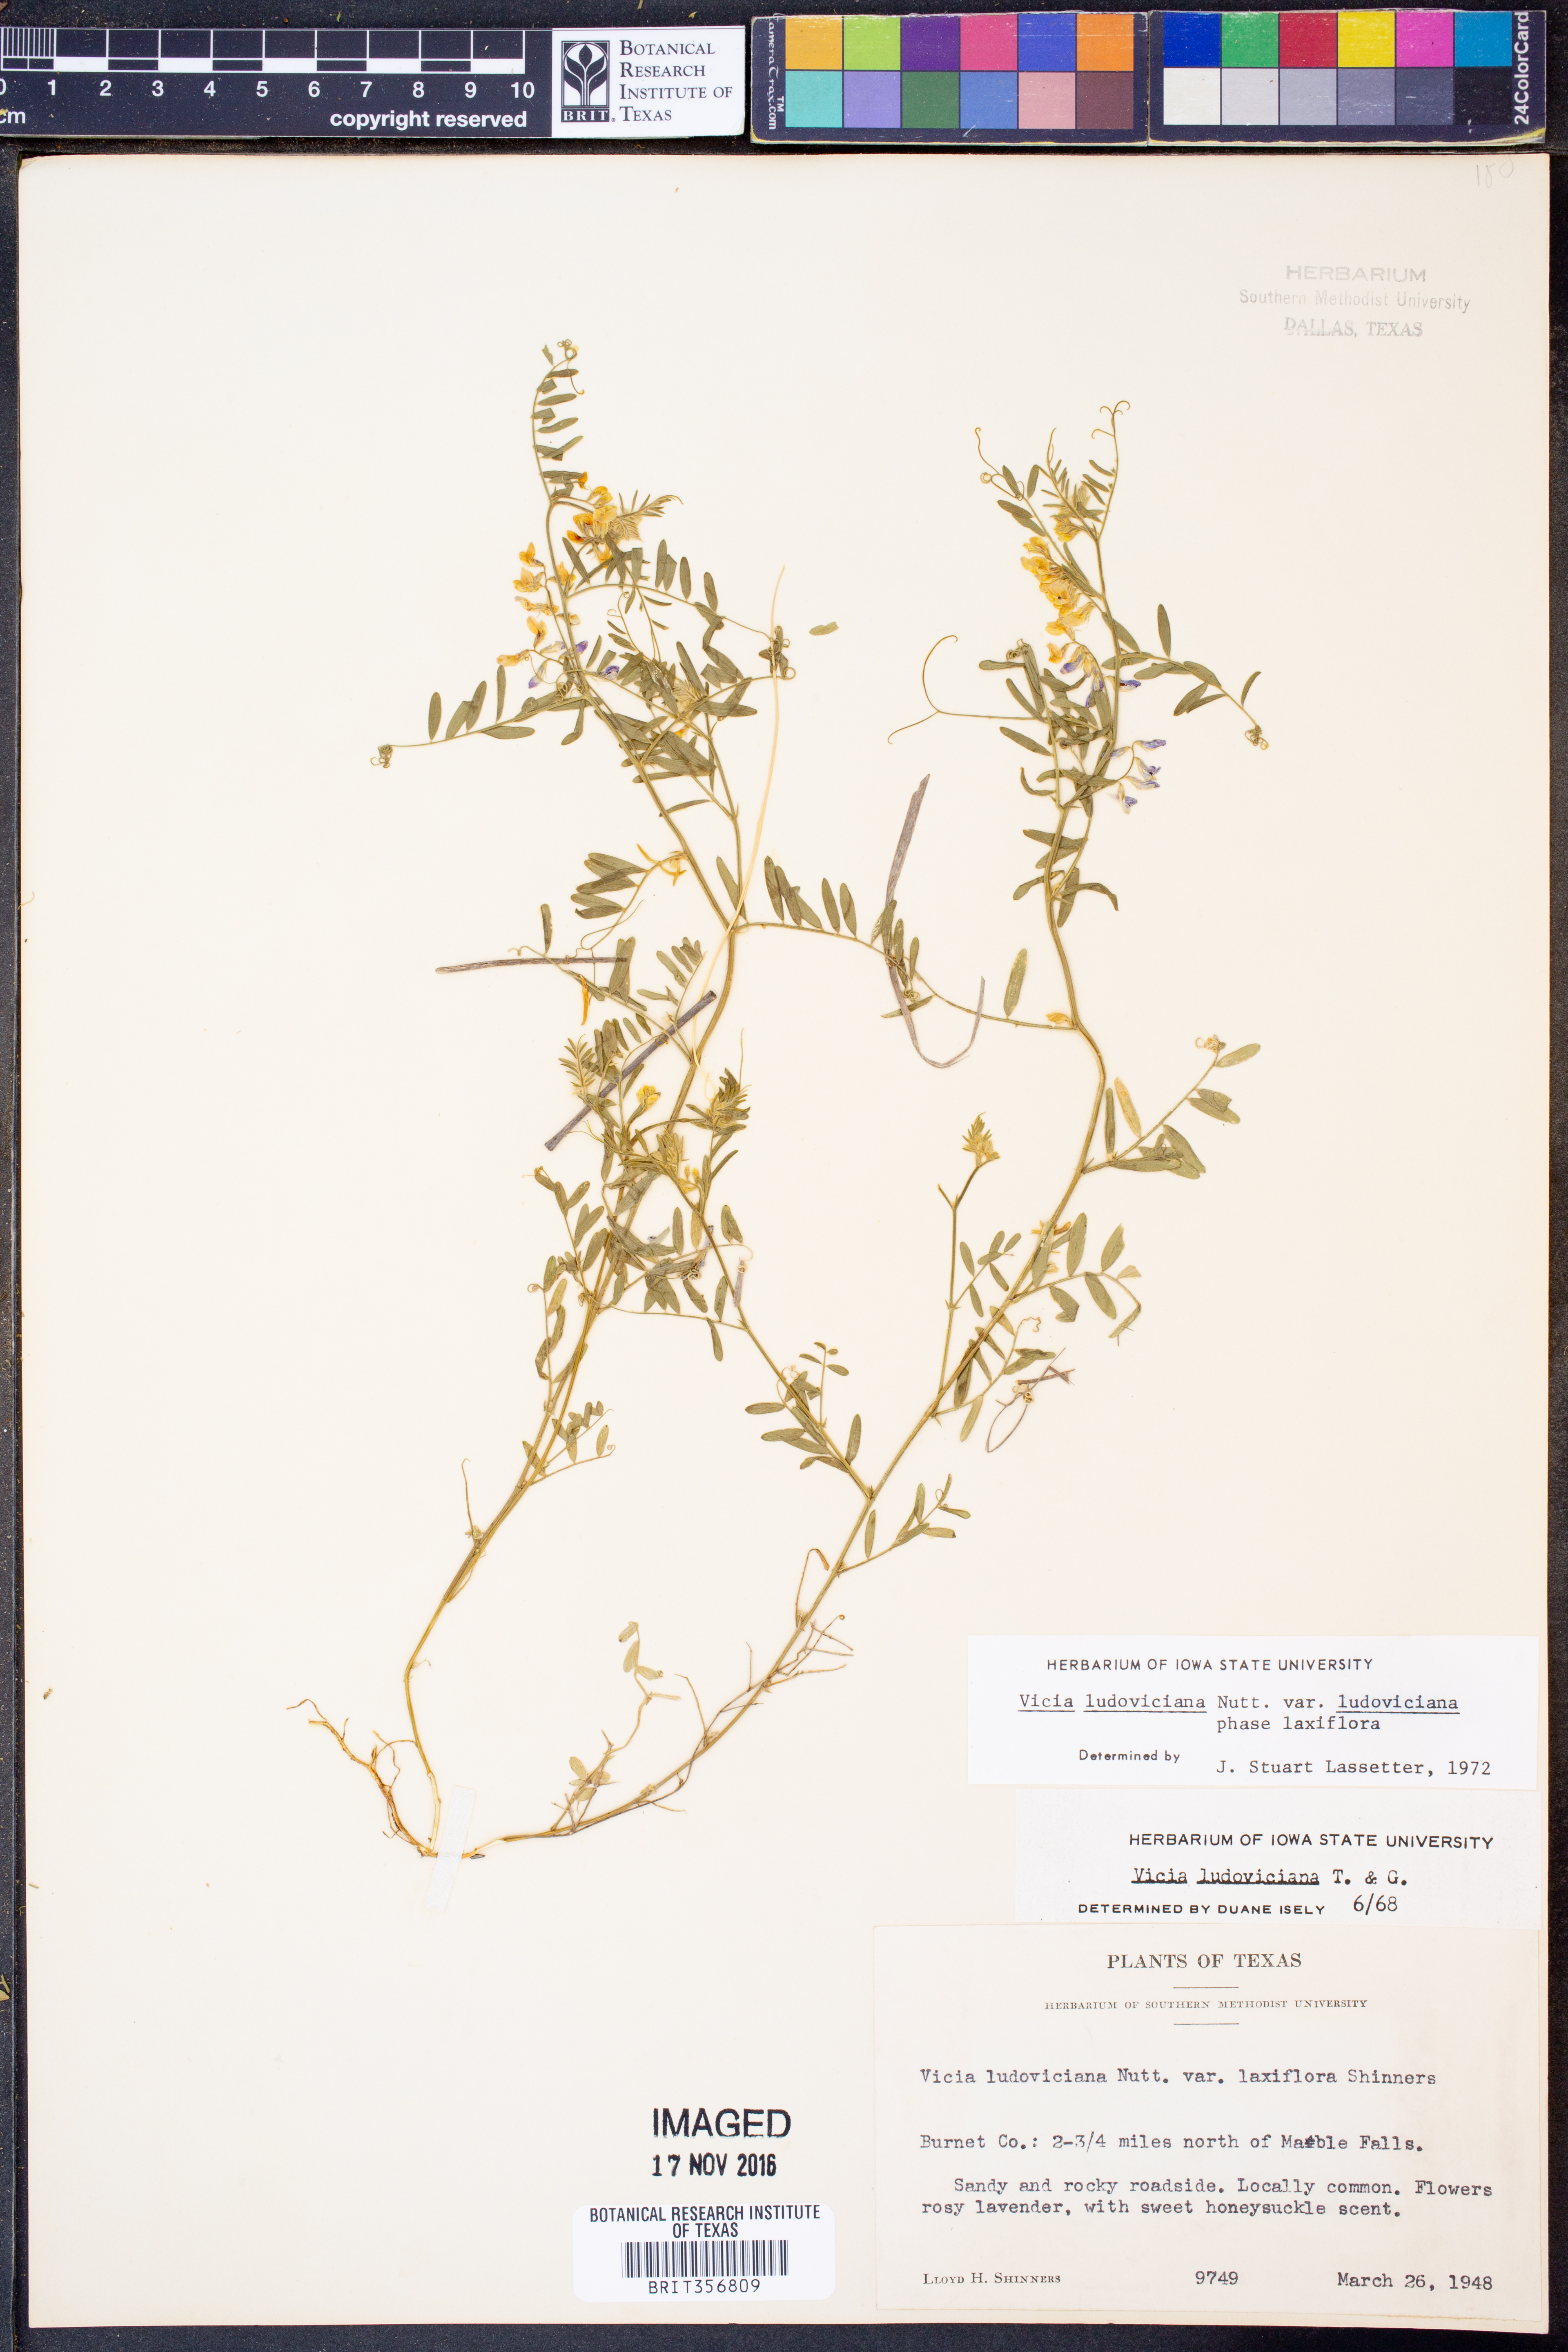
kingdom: Plantae
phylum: Tracheophyta
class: Magnoliopsida
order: Fabales
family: Fabaceae
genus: Vicia
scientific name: Vicia ludoviciana
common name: Louisiana vetch
